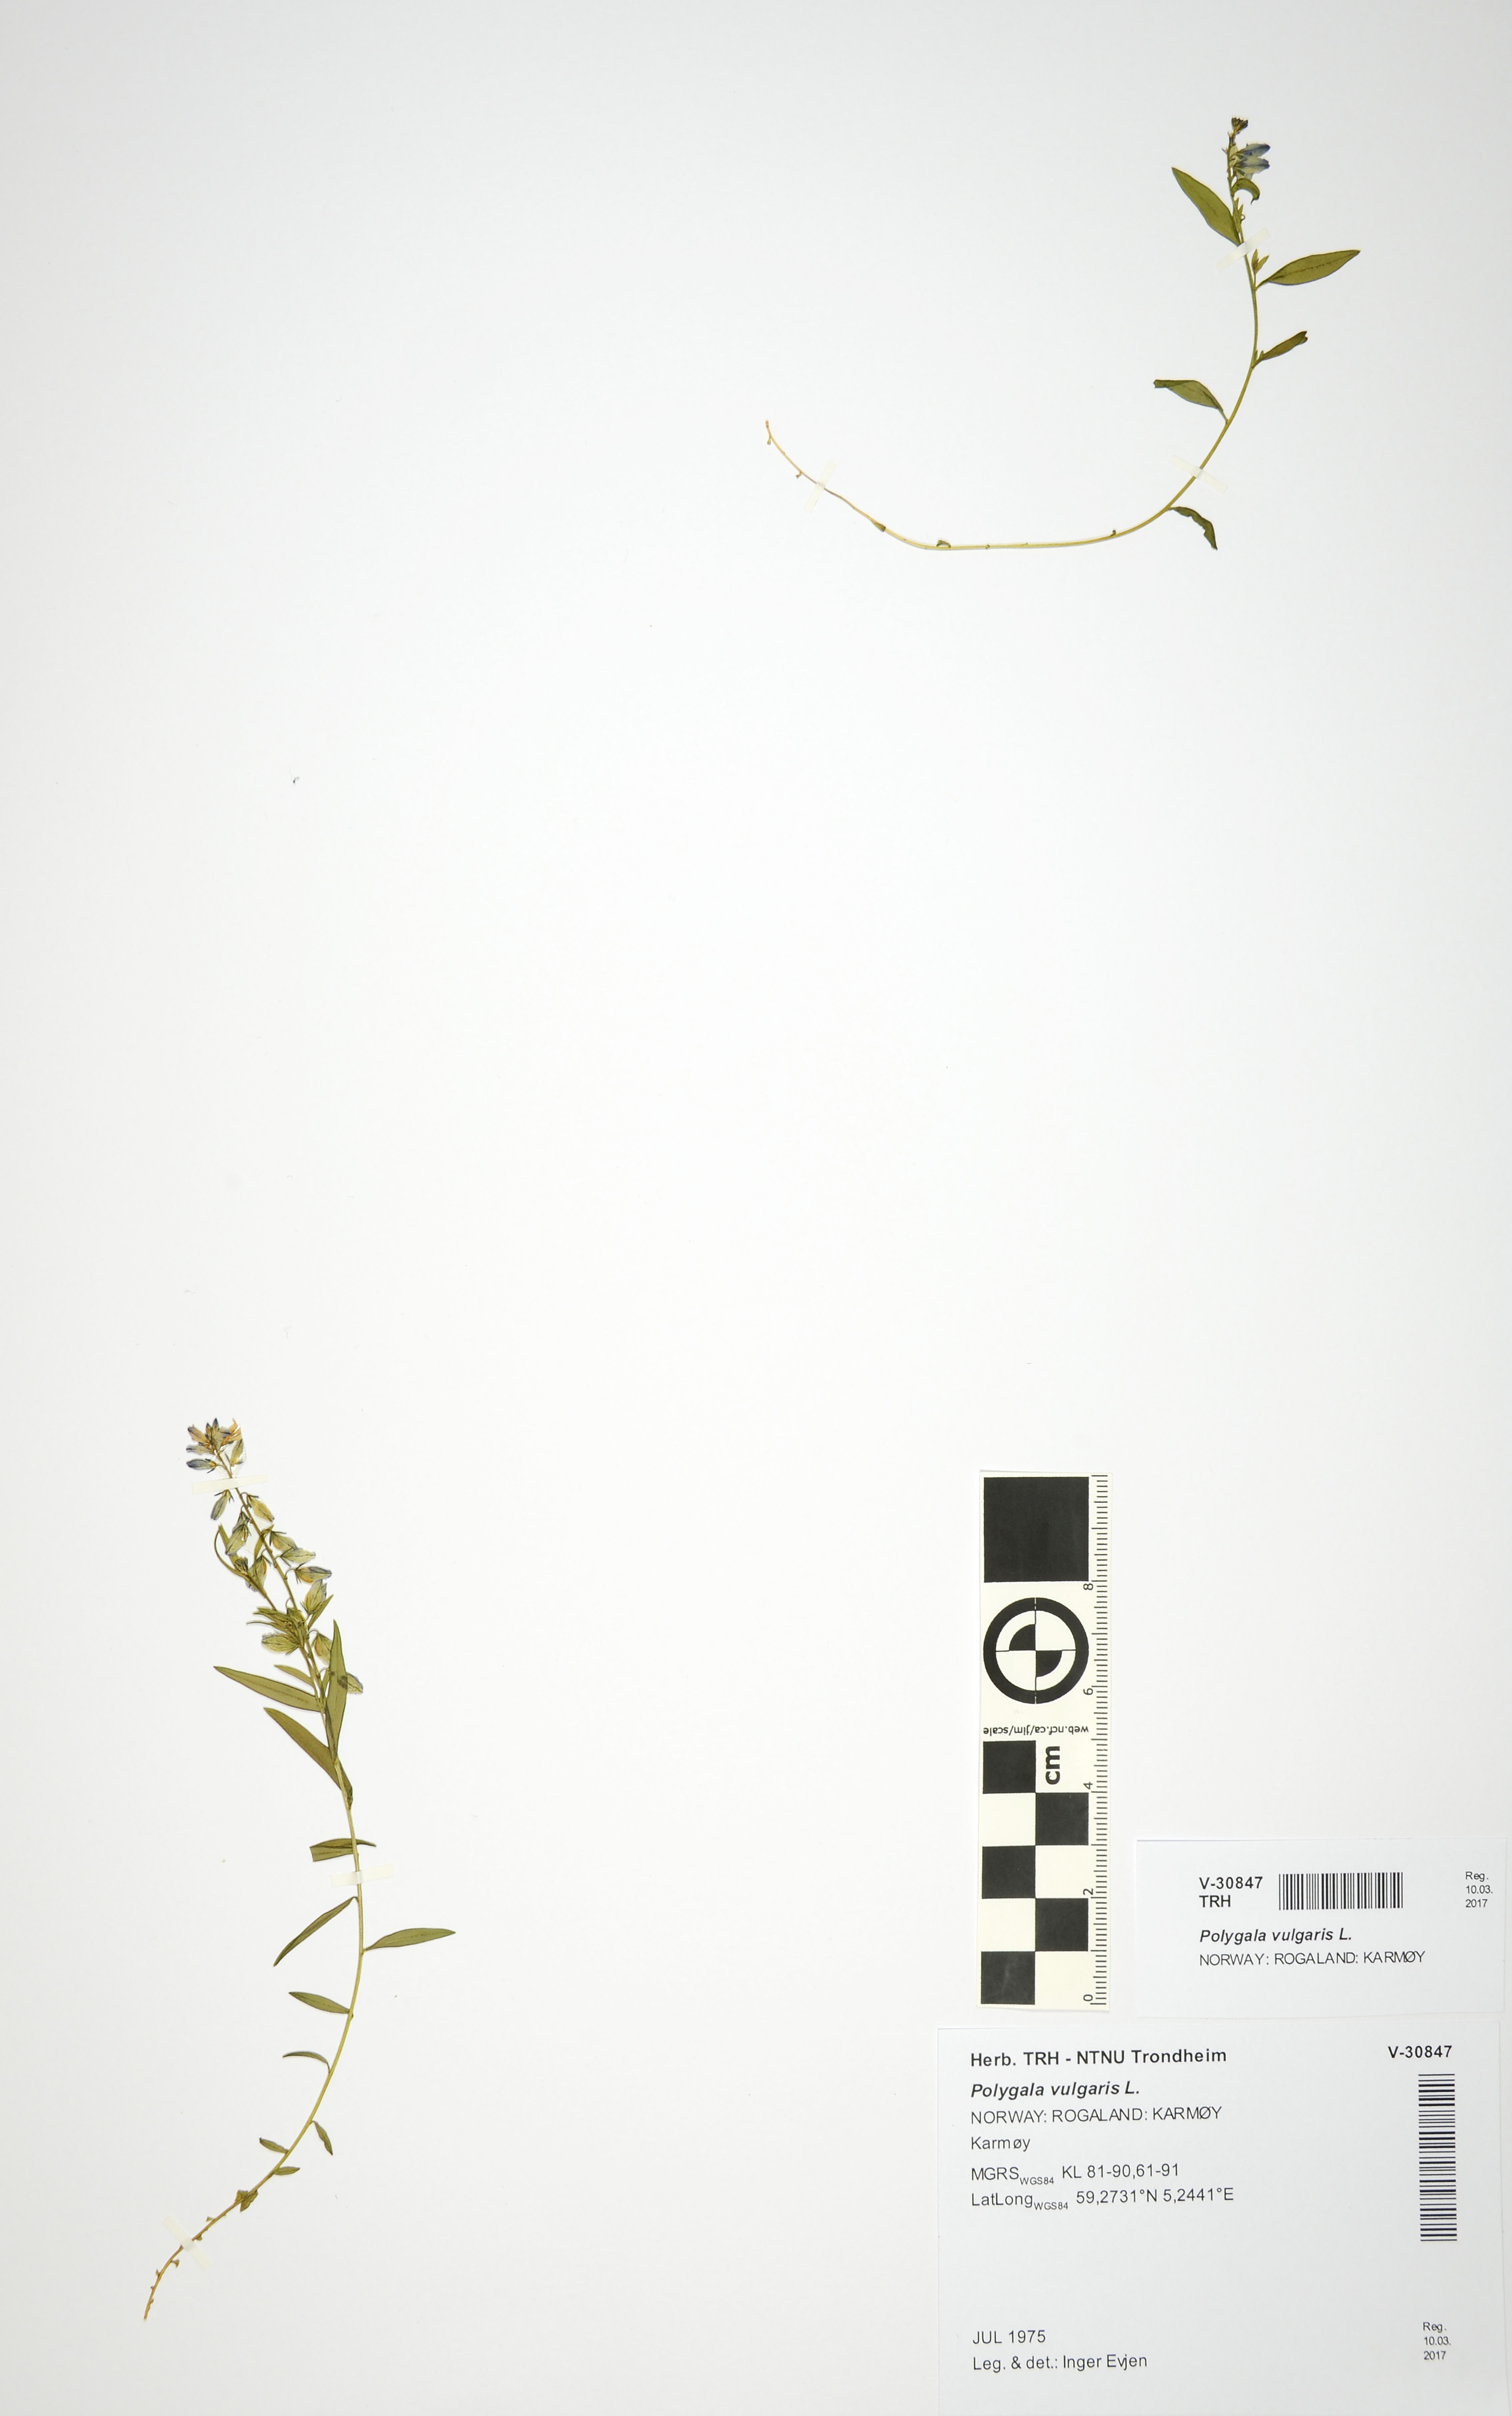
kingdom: Plantae
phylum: Tracheophyta
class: Magnoliopsida
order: Fabales
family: Polygalaceae
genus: Polygala
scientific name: Polygala vulgaris
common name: Common milkwort
